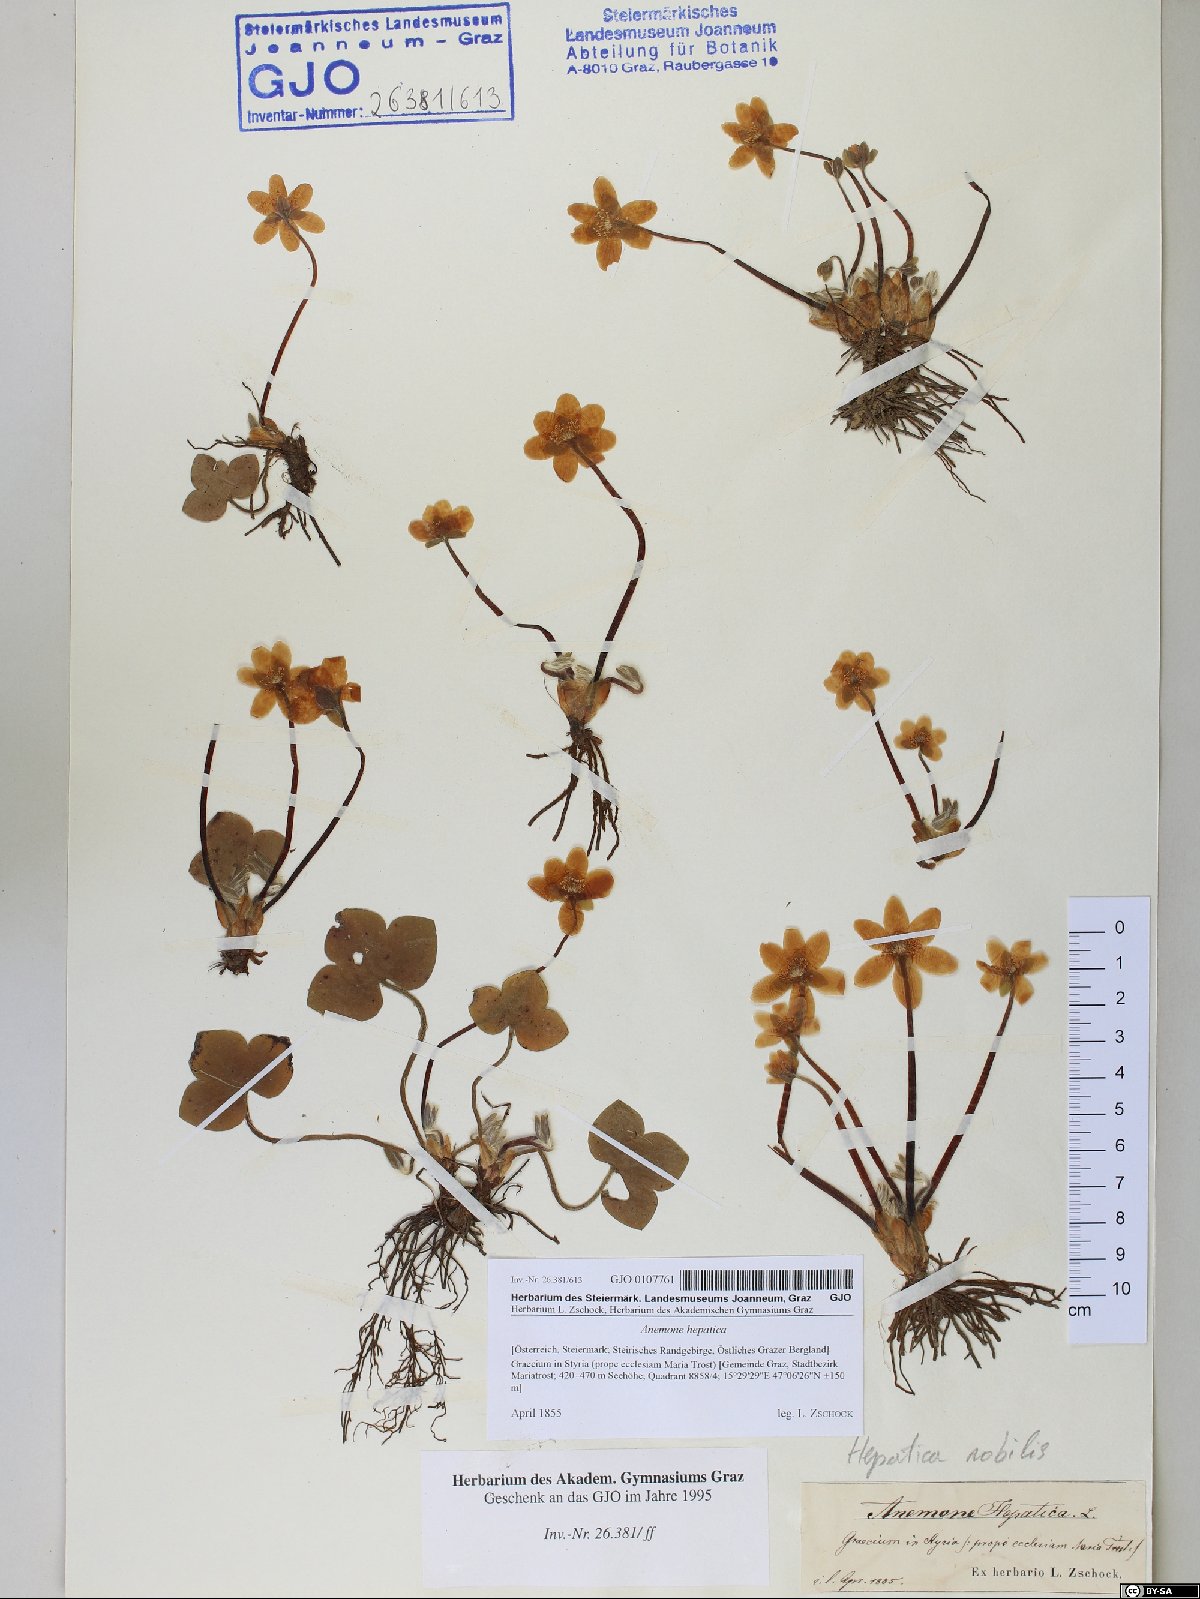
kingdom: Plantae
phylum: Tracheophyta
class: Magnoliopsida
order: Ranunculales
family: Ranunculaceae
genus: Hepatica
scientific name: Hepatica nobilis
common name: Liverleaf
